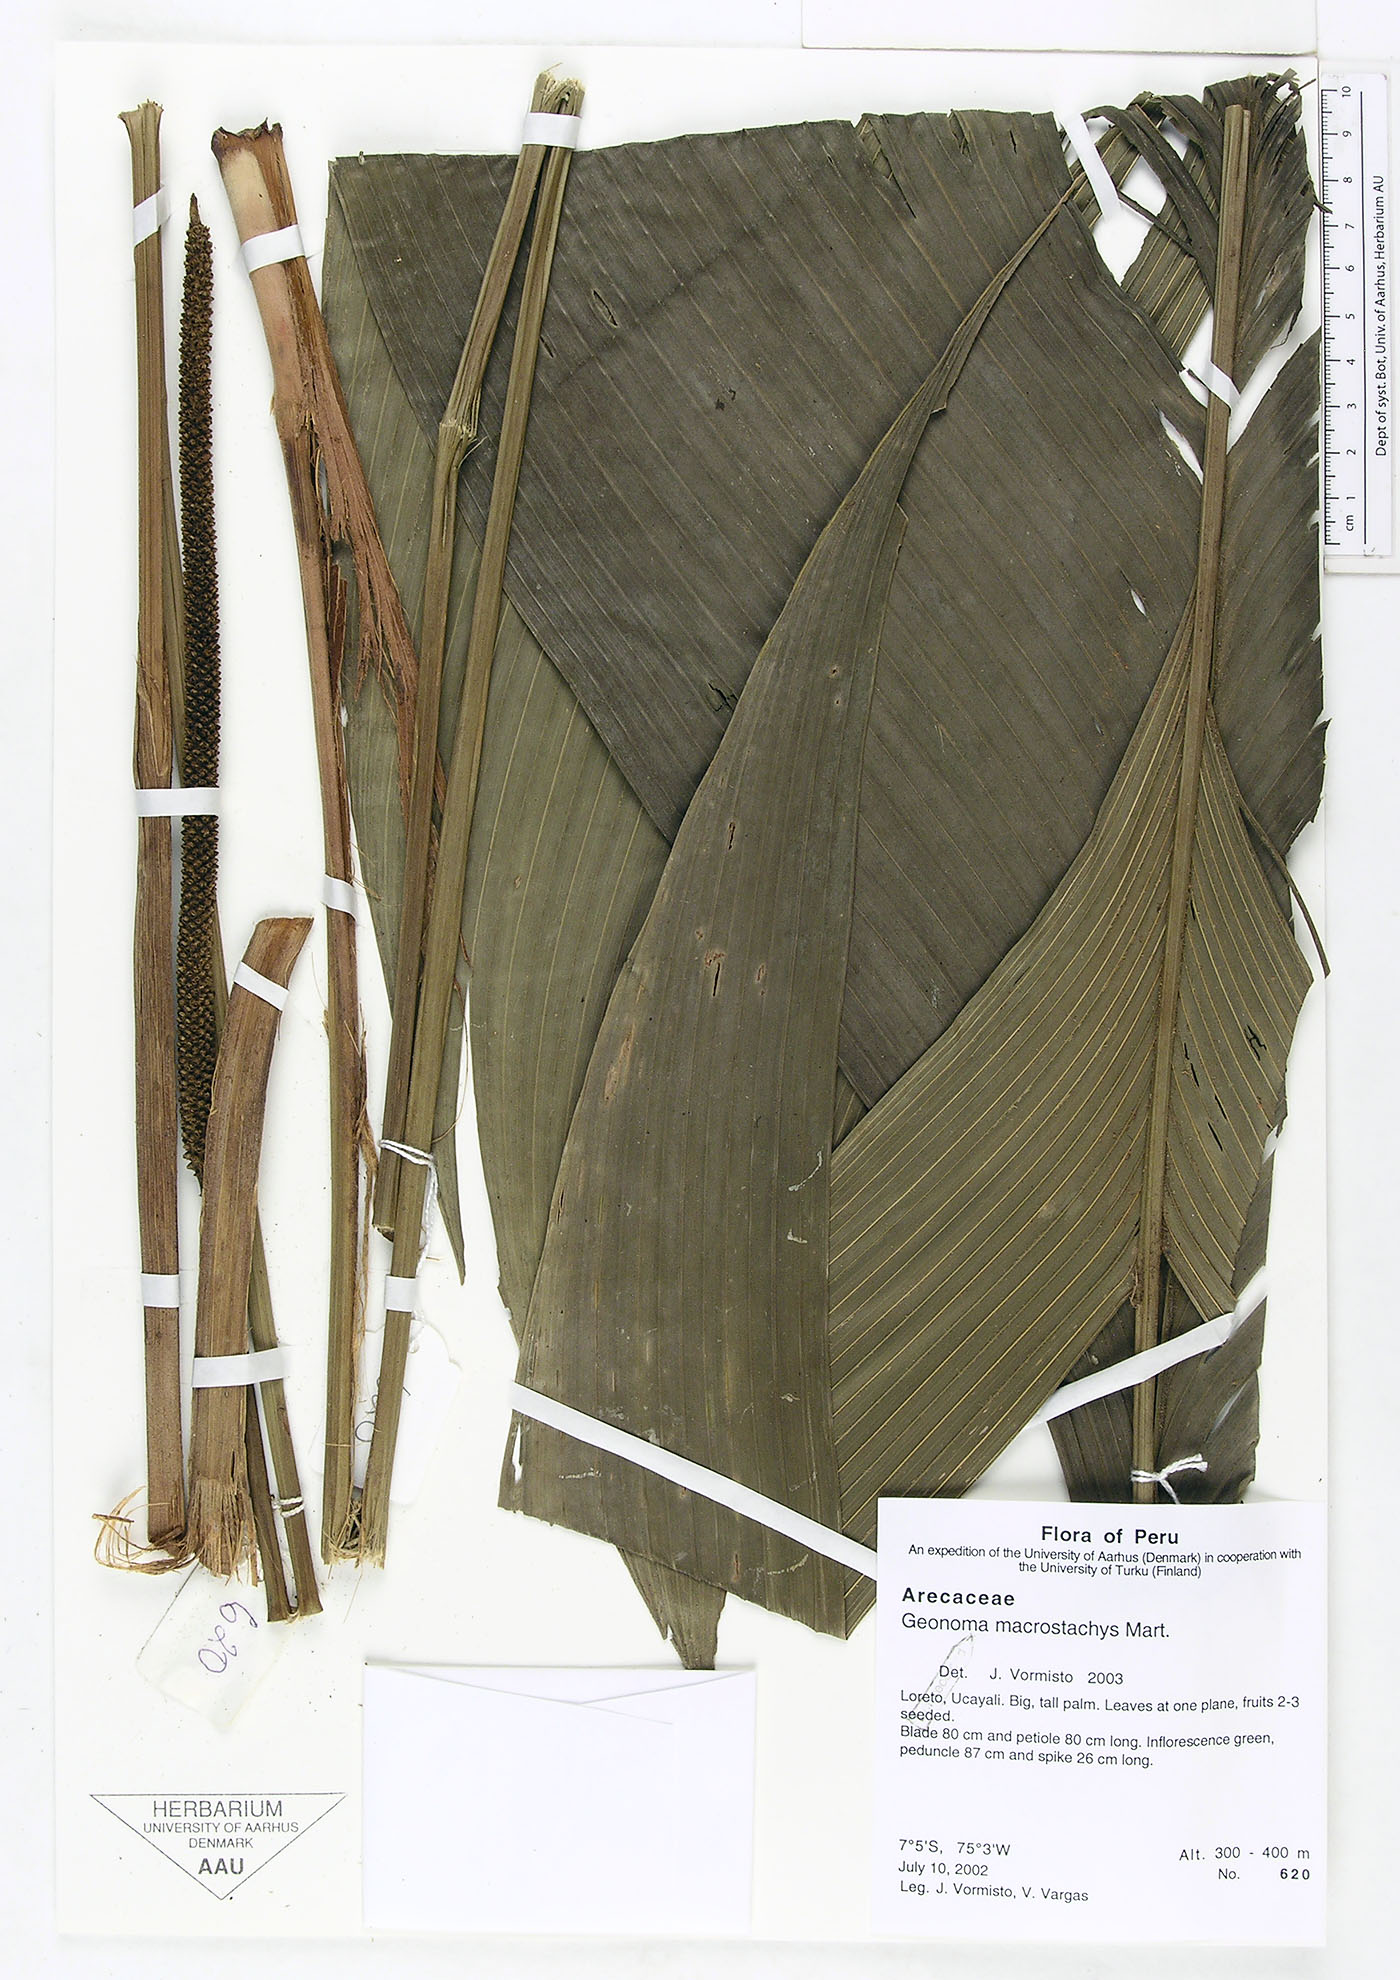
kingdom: Plantae
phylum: Tracheophyta
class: Liliopsida
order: Arecales
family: Arecaceae
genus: Geonoma
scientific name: Geonoma macrostachys
